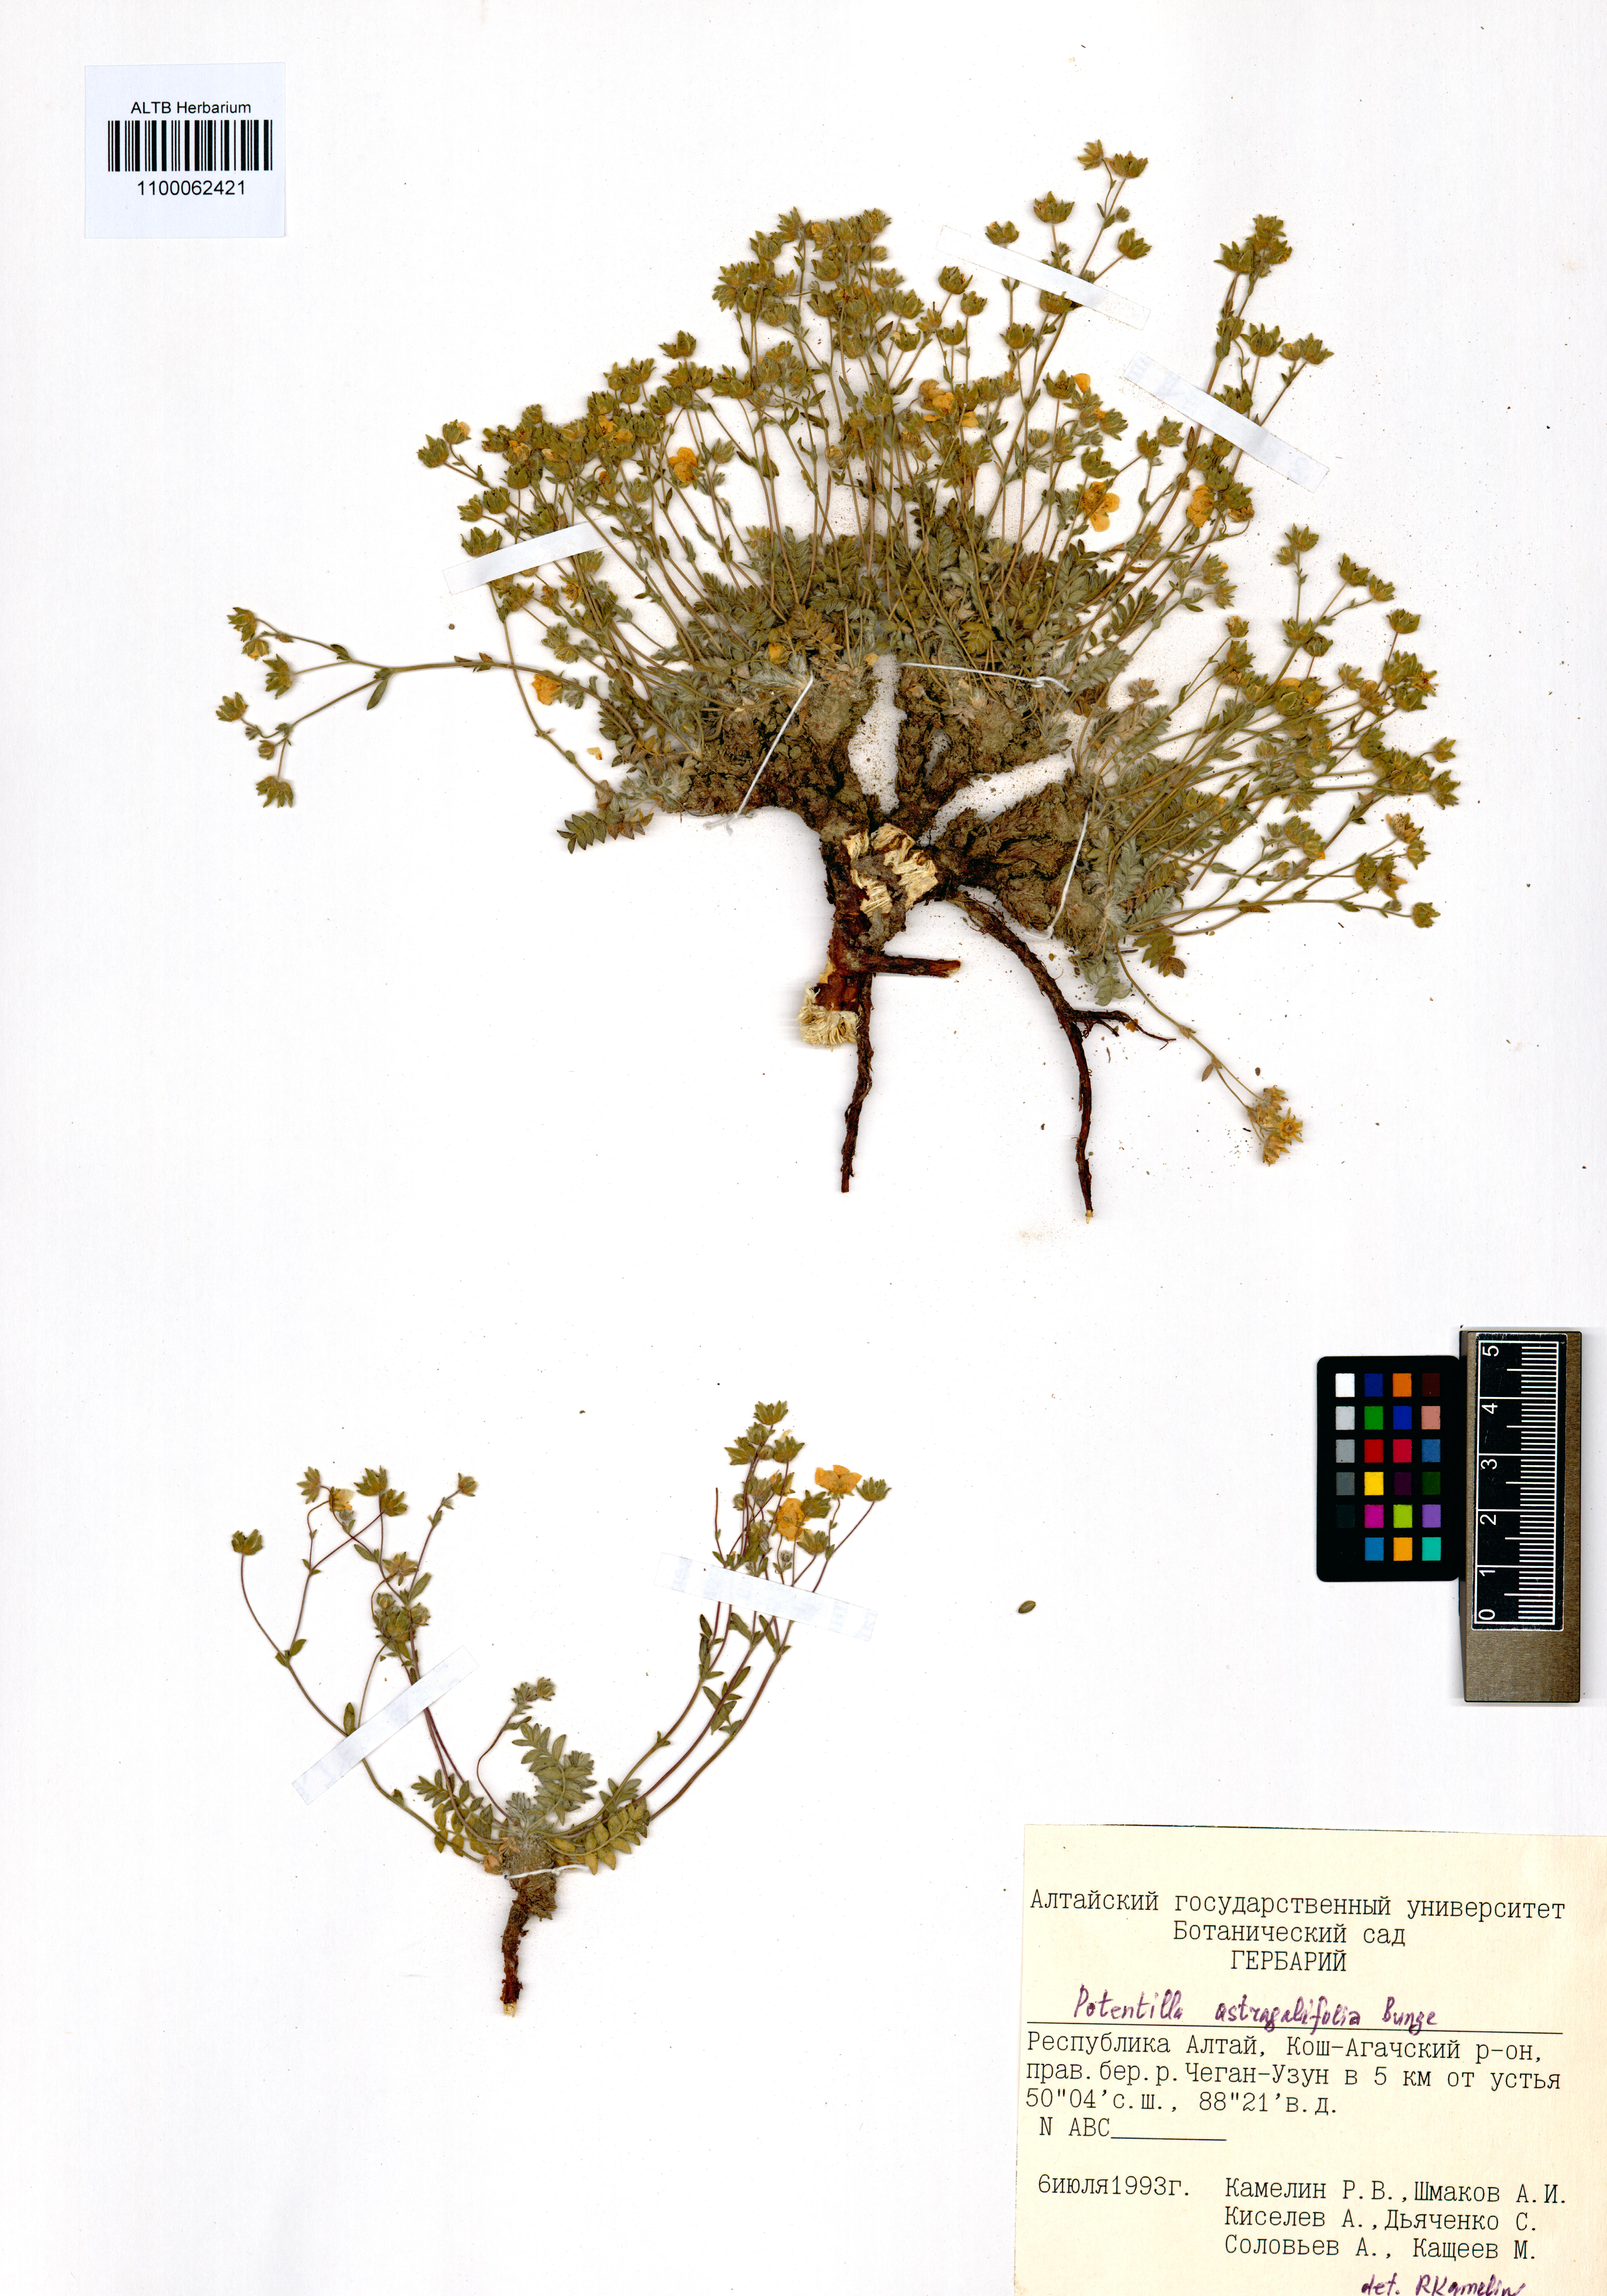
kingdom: Plantae
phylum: Tracheophyta
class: Magnoliopsida
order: Rosales
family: Rosaceae
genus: Potentilla
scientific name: Potentilla astragalifolia
